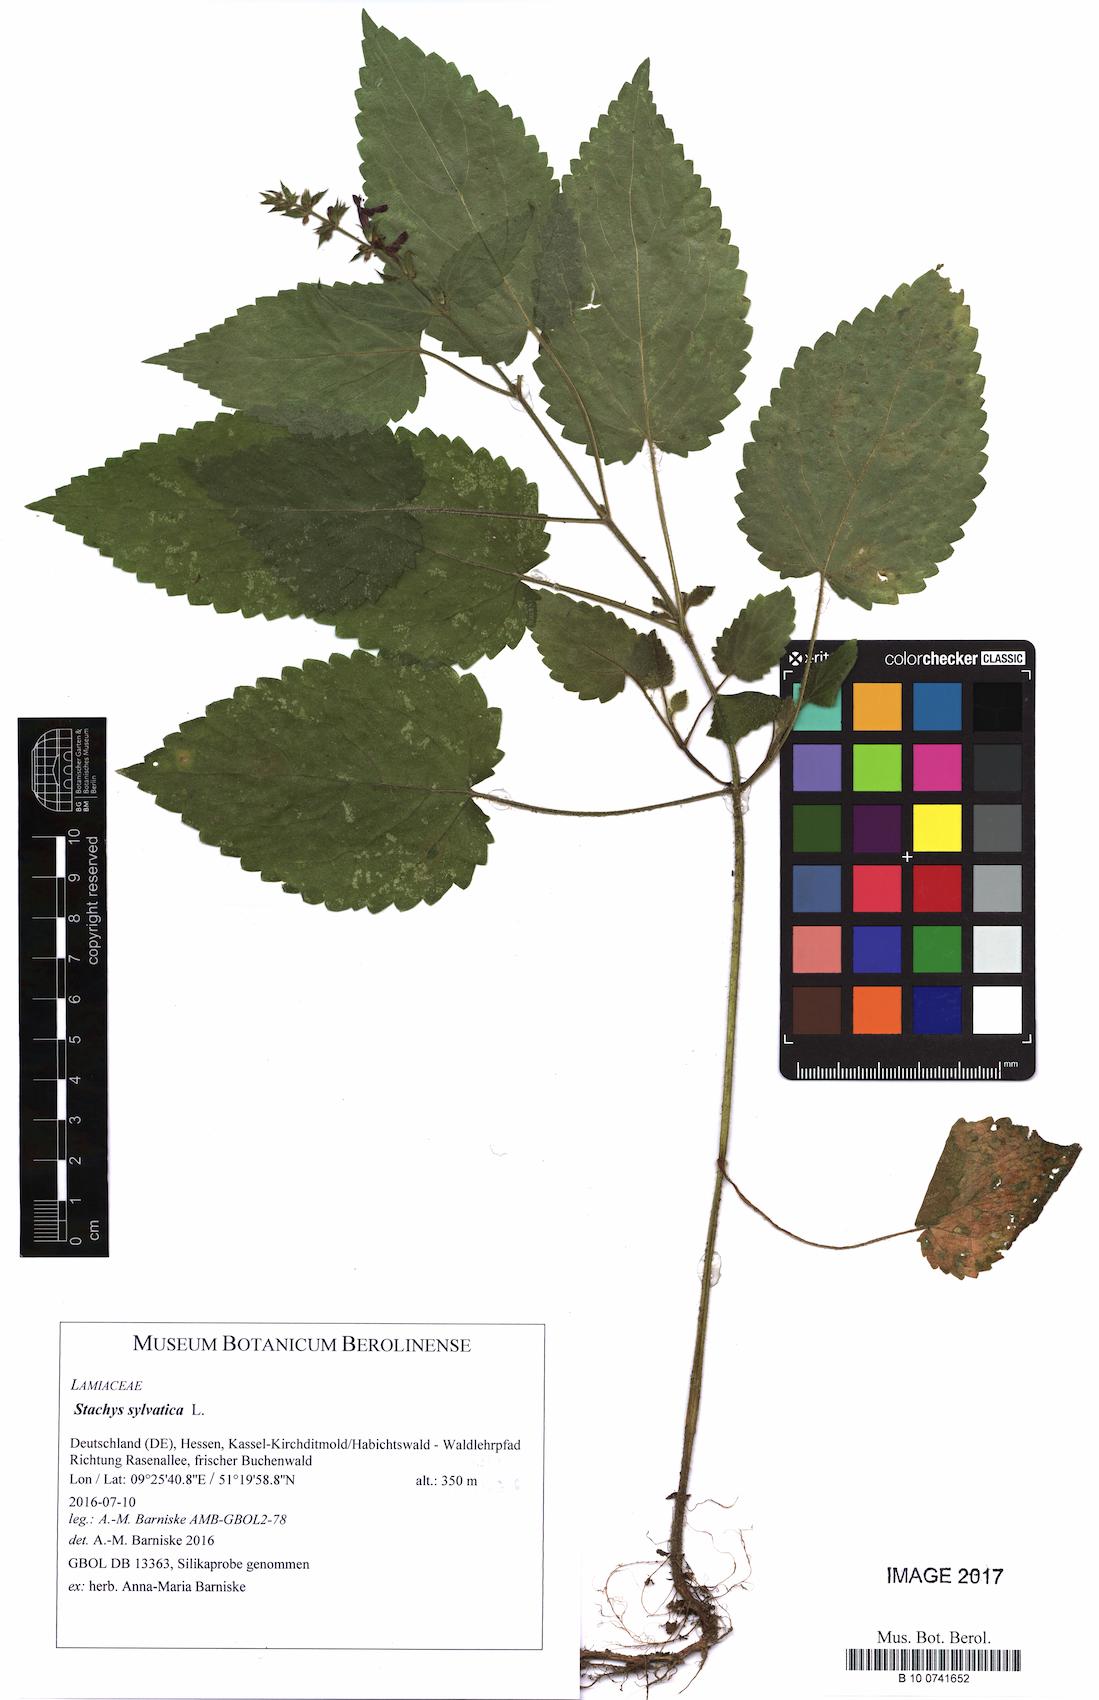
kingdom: Plantae
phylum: Tracheophyta
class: Magnoliopsida
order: Lamiales
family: Lamiaceae
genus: Stachys
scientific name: Stachys sylvatica
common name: Hedge woundwort
